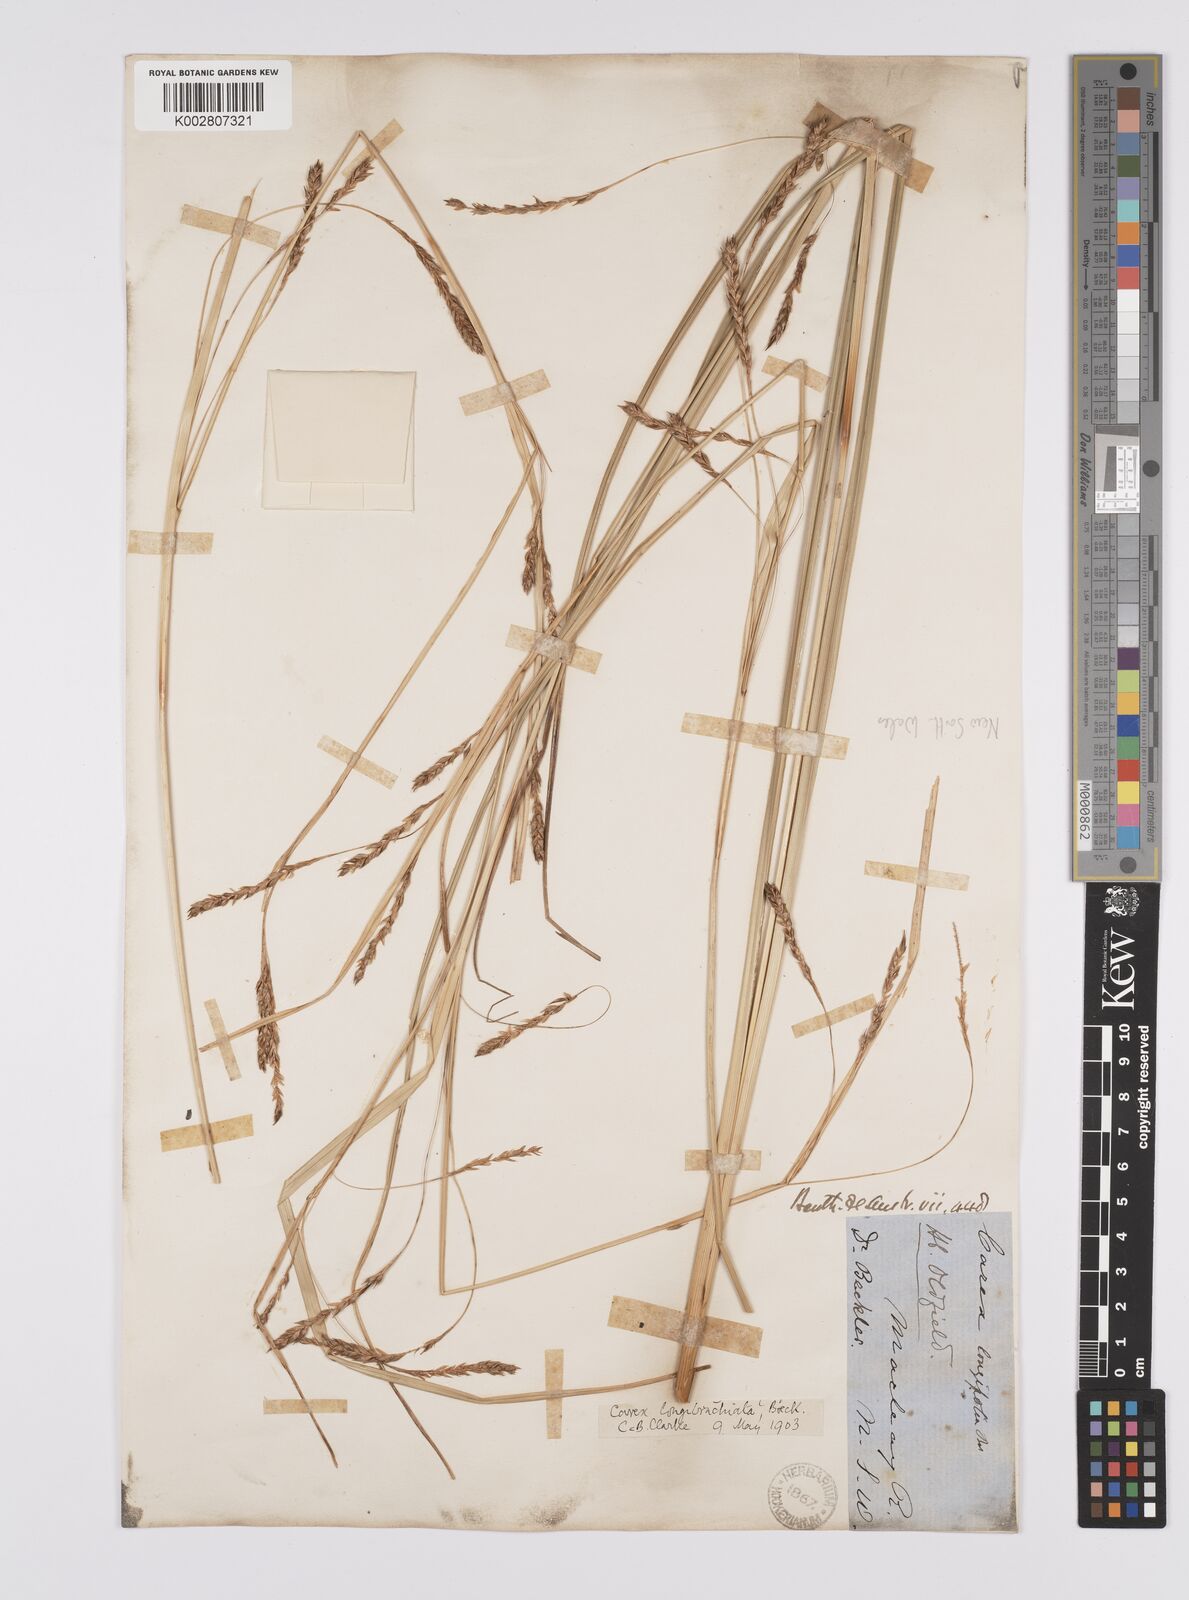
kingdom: Plantae
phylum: Tracheophyta
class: Liliopsida
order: Poales
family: Cyperaceae
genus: Carex
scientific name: Carex pseudocyperus
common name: Cyperus sedge
